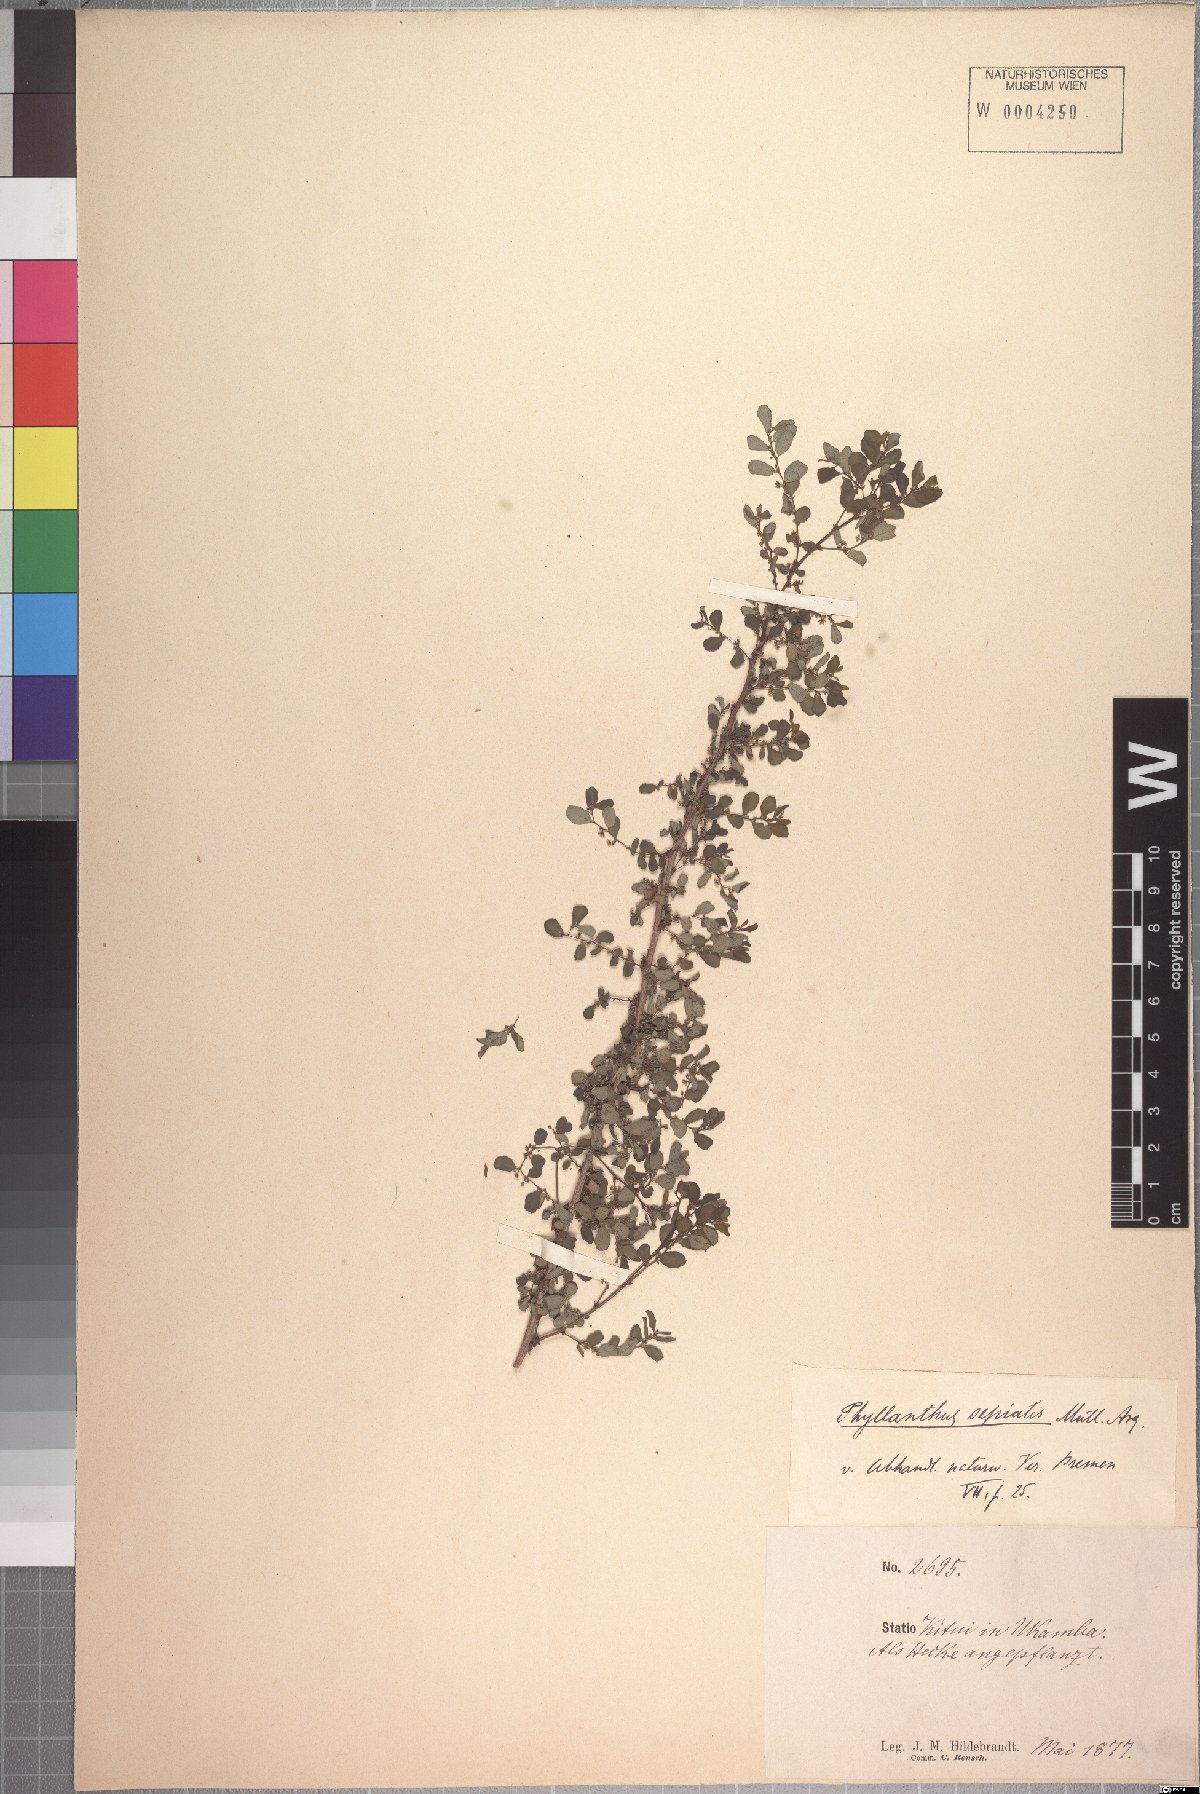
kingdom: Plantae
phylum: Tracheophyta
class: Magnoliopsida
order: Malpighiales
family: Phyllanthaceae
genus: Phyllanthus
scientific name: Phyllanthus sepialis
